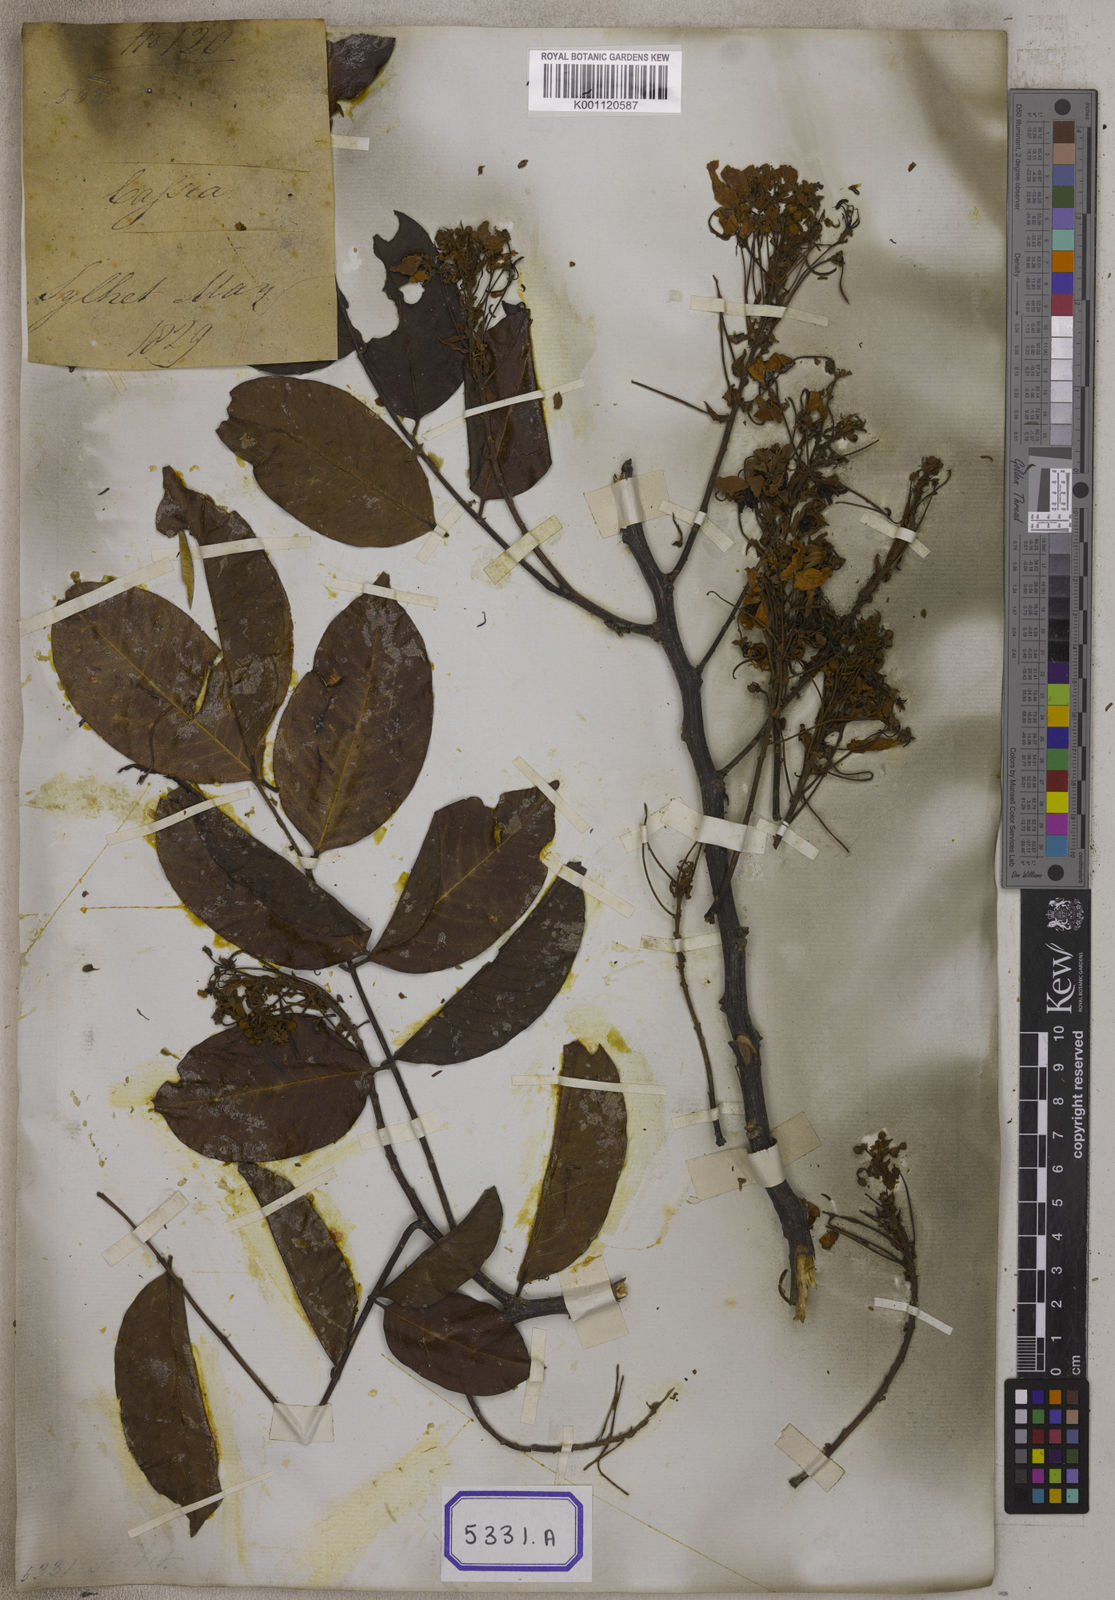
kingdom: Plantae
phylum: Tracheophyta
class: Magnoliopsida
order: Fabales
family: Fabaceae
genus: Cassia
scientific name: Cassia
